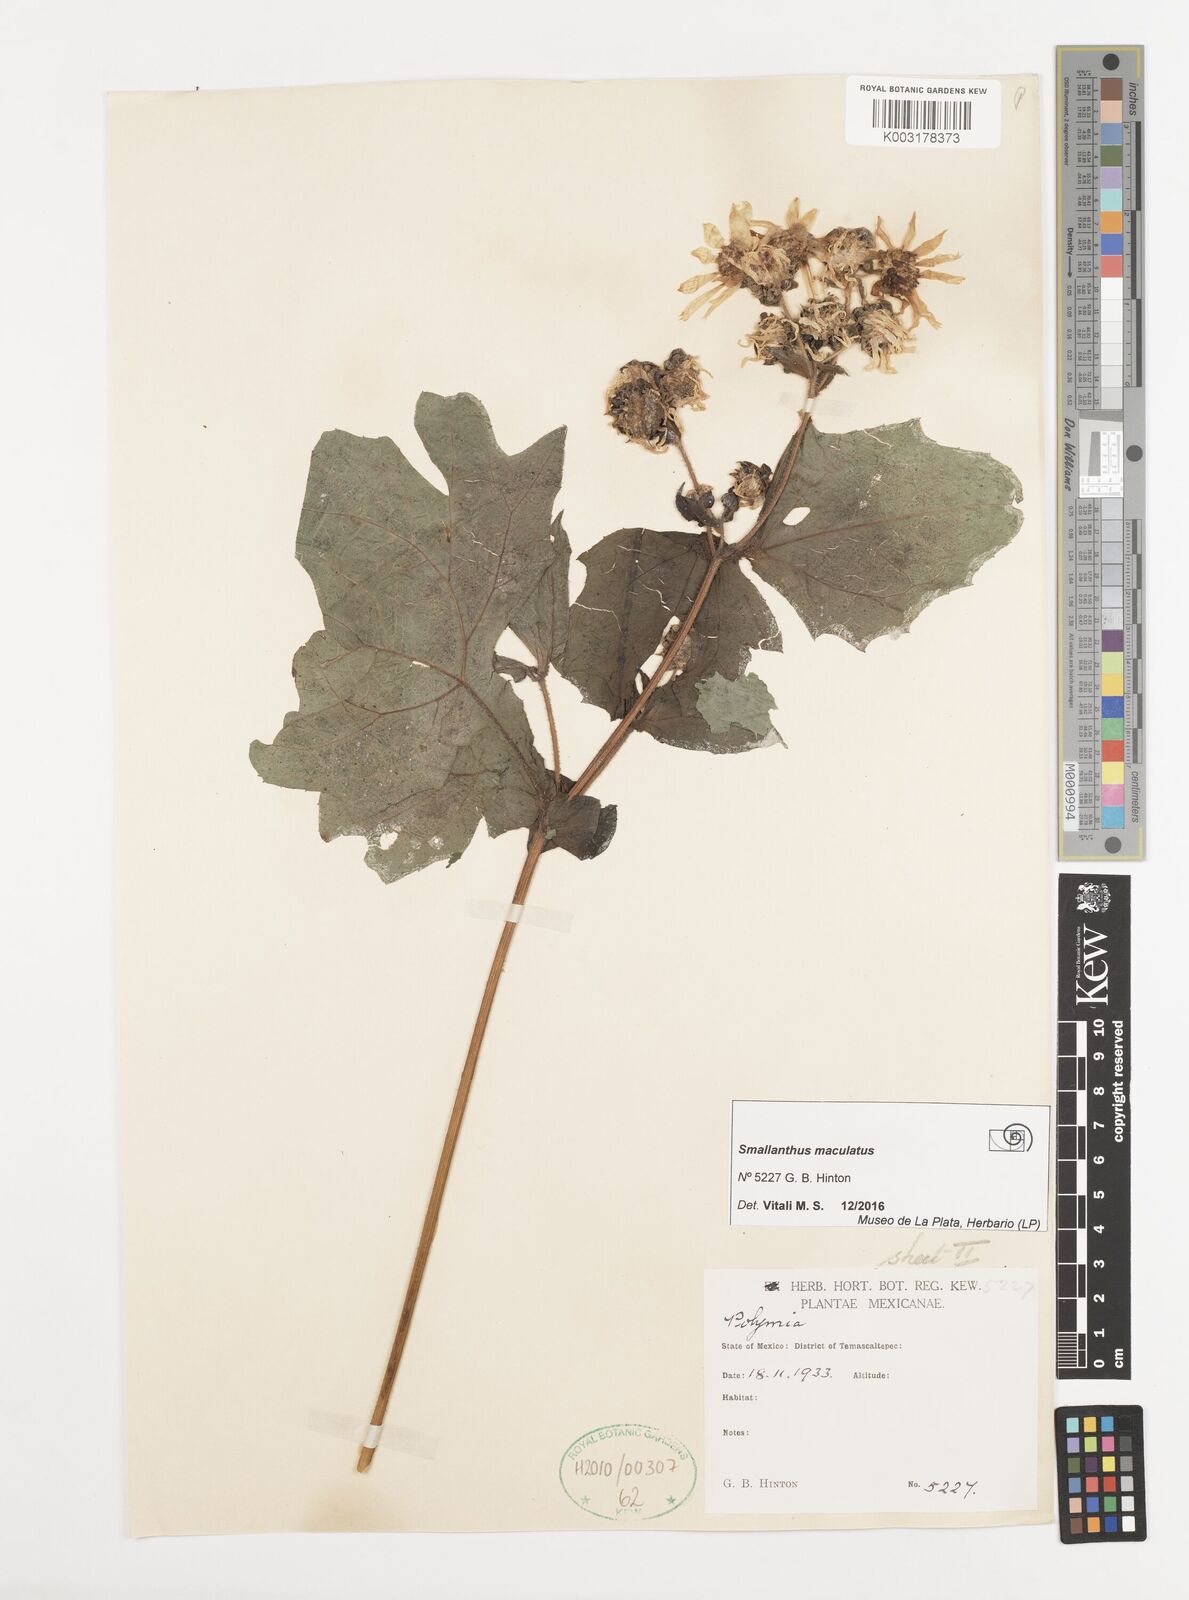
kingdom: Plantae
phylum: Tracheophyta
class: Magnoliopsida
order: Asterales
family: Asteraceae
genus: Smallanthus
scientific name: Smallanthus maculatus
